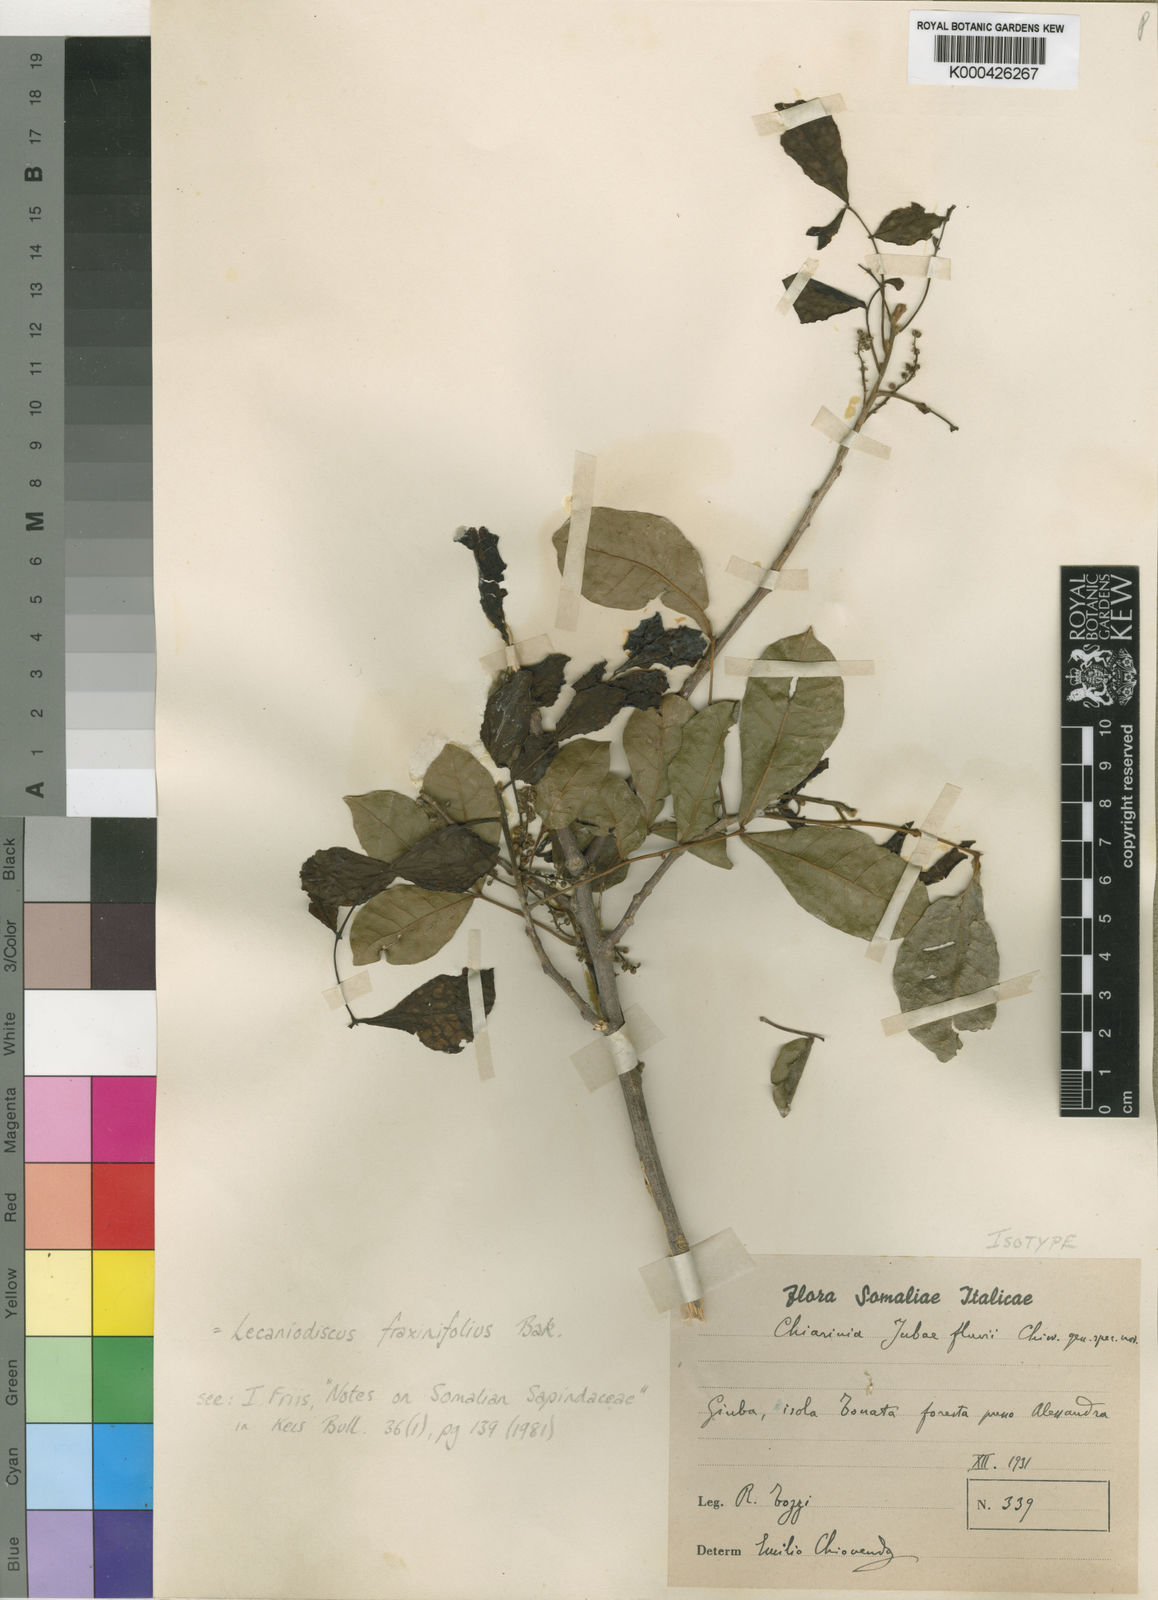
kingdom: Plantae
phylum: Tracheophyta
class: Magnoliopsida
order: Sapindales
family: Sapindaceae
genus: Lecaniodiscus
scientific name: Lecaniodiscus fraxinifolius
